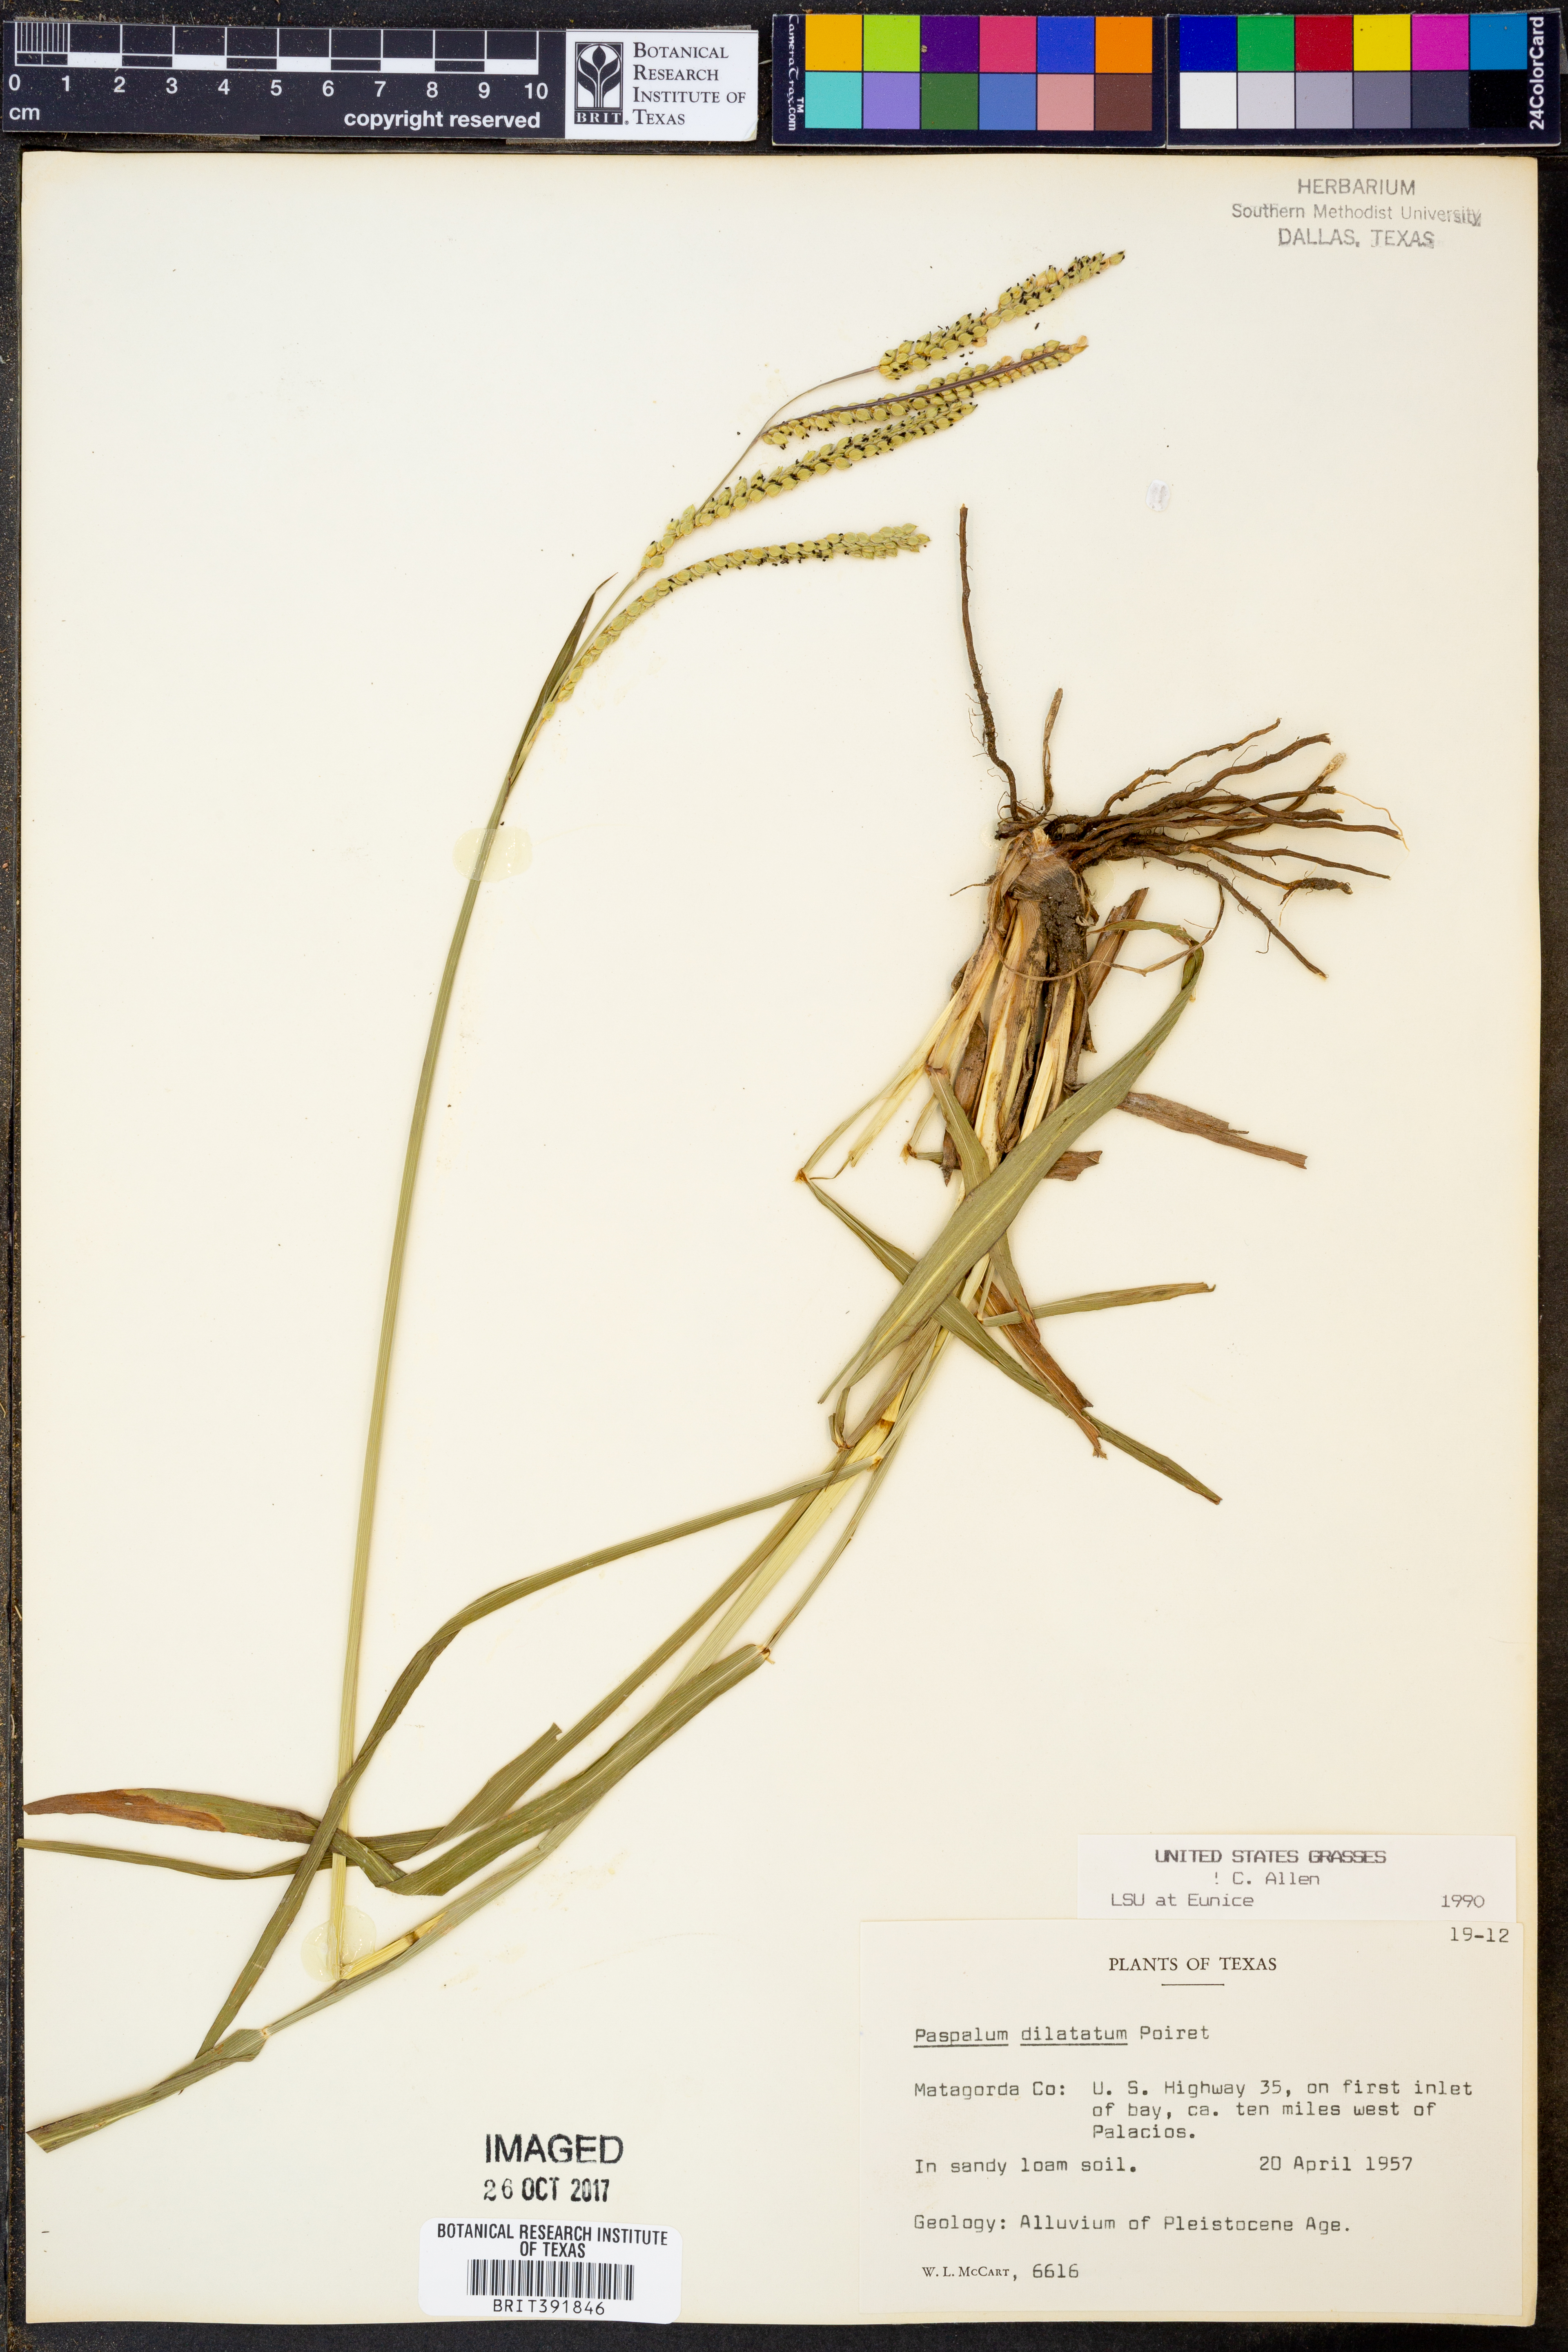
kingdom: Plantae
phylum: Tracheophyta
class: Liliopsida
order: Poales
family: Poaceae
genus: Paspalum
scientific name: Paspalum dilatatum
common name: Dallisgrass
